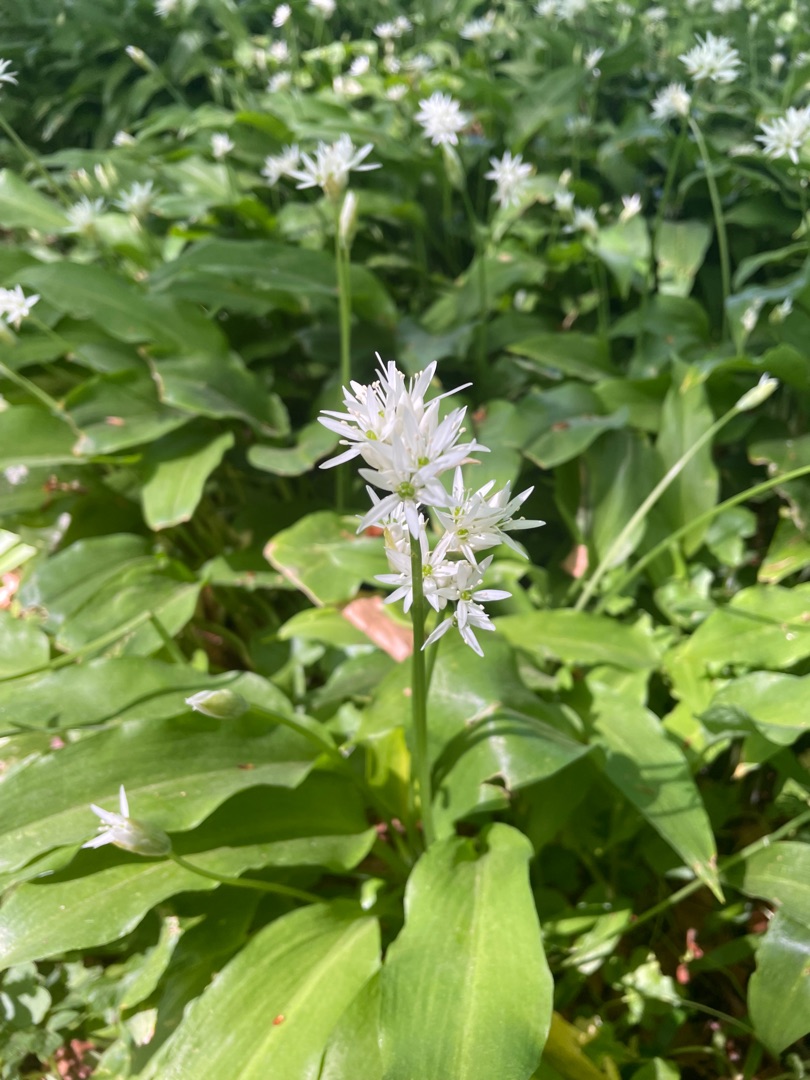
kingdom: Plantae
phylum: Tracheophyta
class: Liliopsida
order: Asparagales
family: Amaryllidaceae
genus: Allium
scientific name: Allium ursinum
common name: Rams-løg
